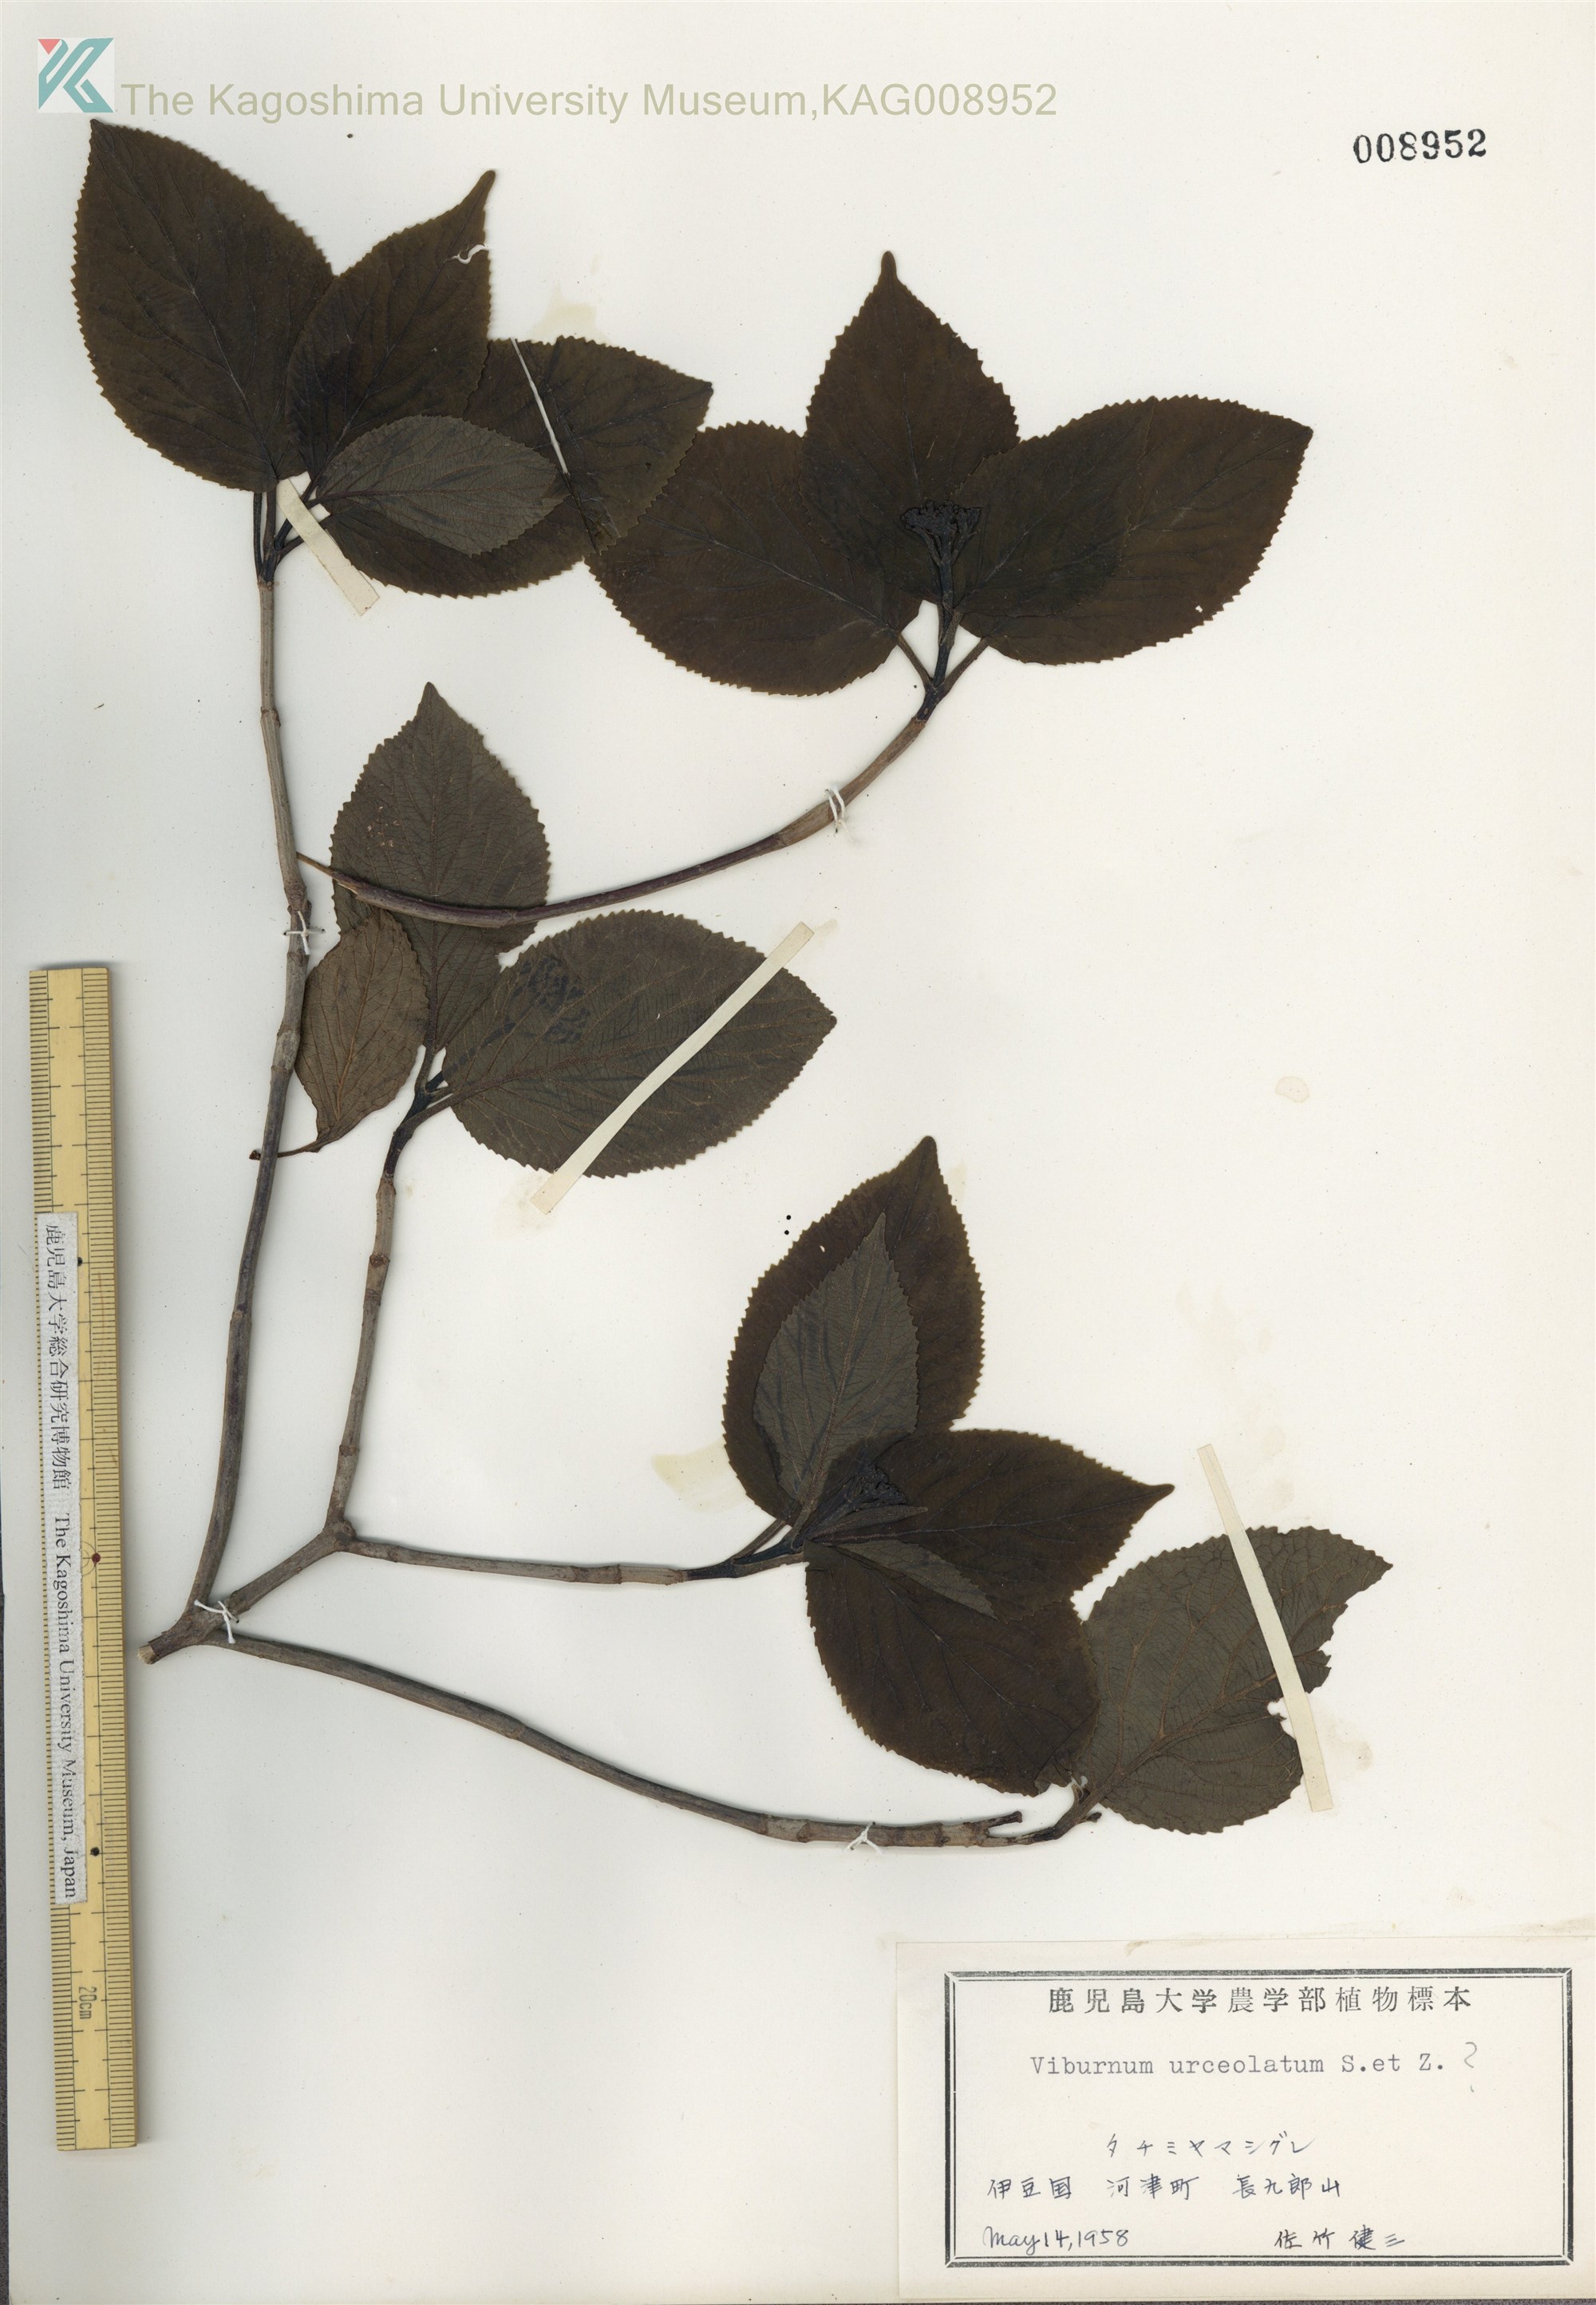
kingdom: Plantae
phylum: Tracheophyta
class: Magnoliopsida
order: Dipsacales
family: Viburnaceae
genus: Viburnum
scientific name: Viburnum urceolatum
